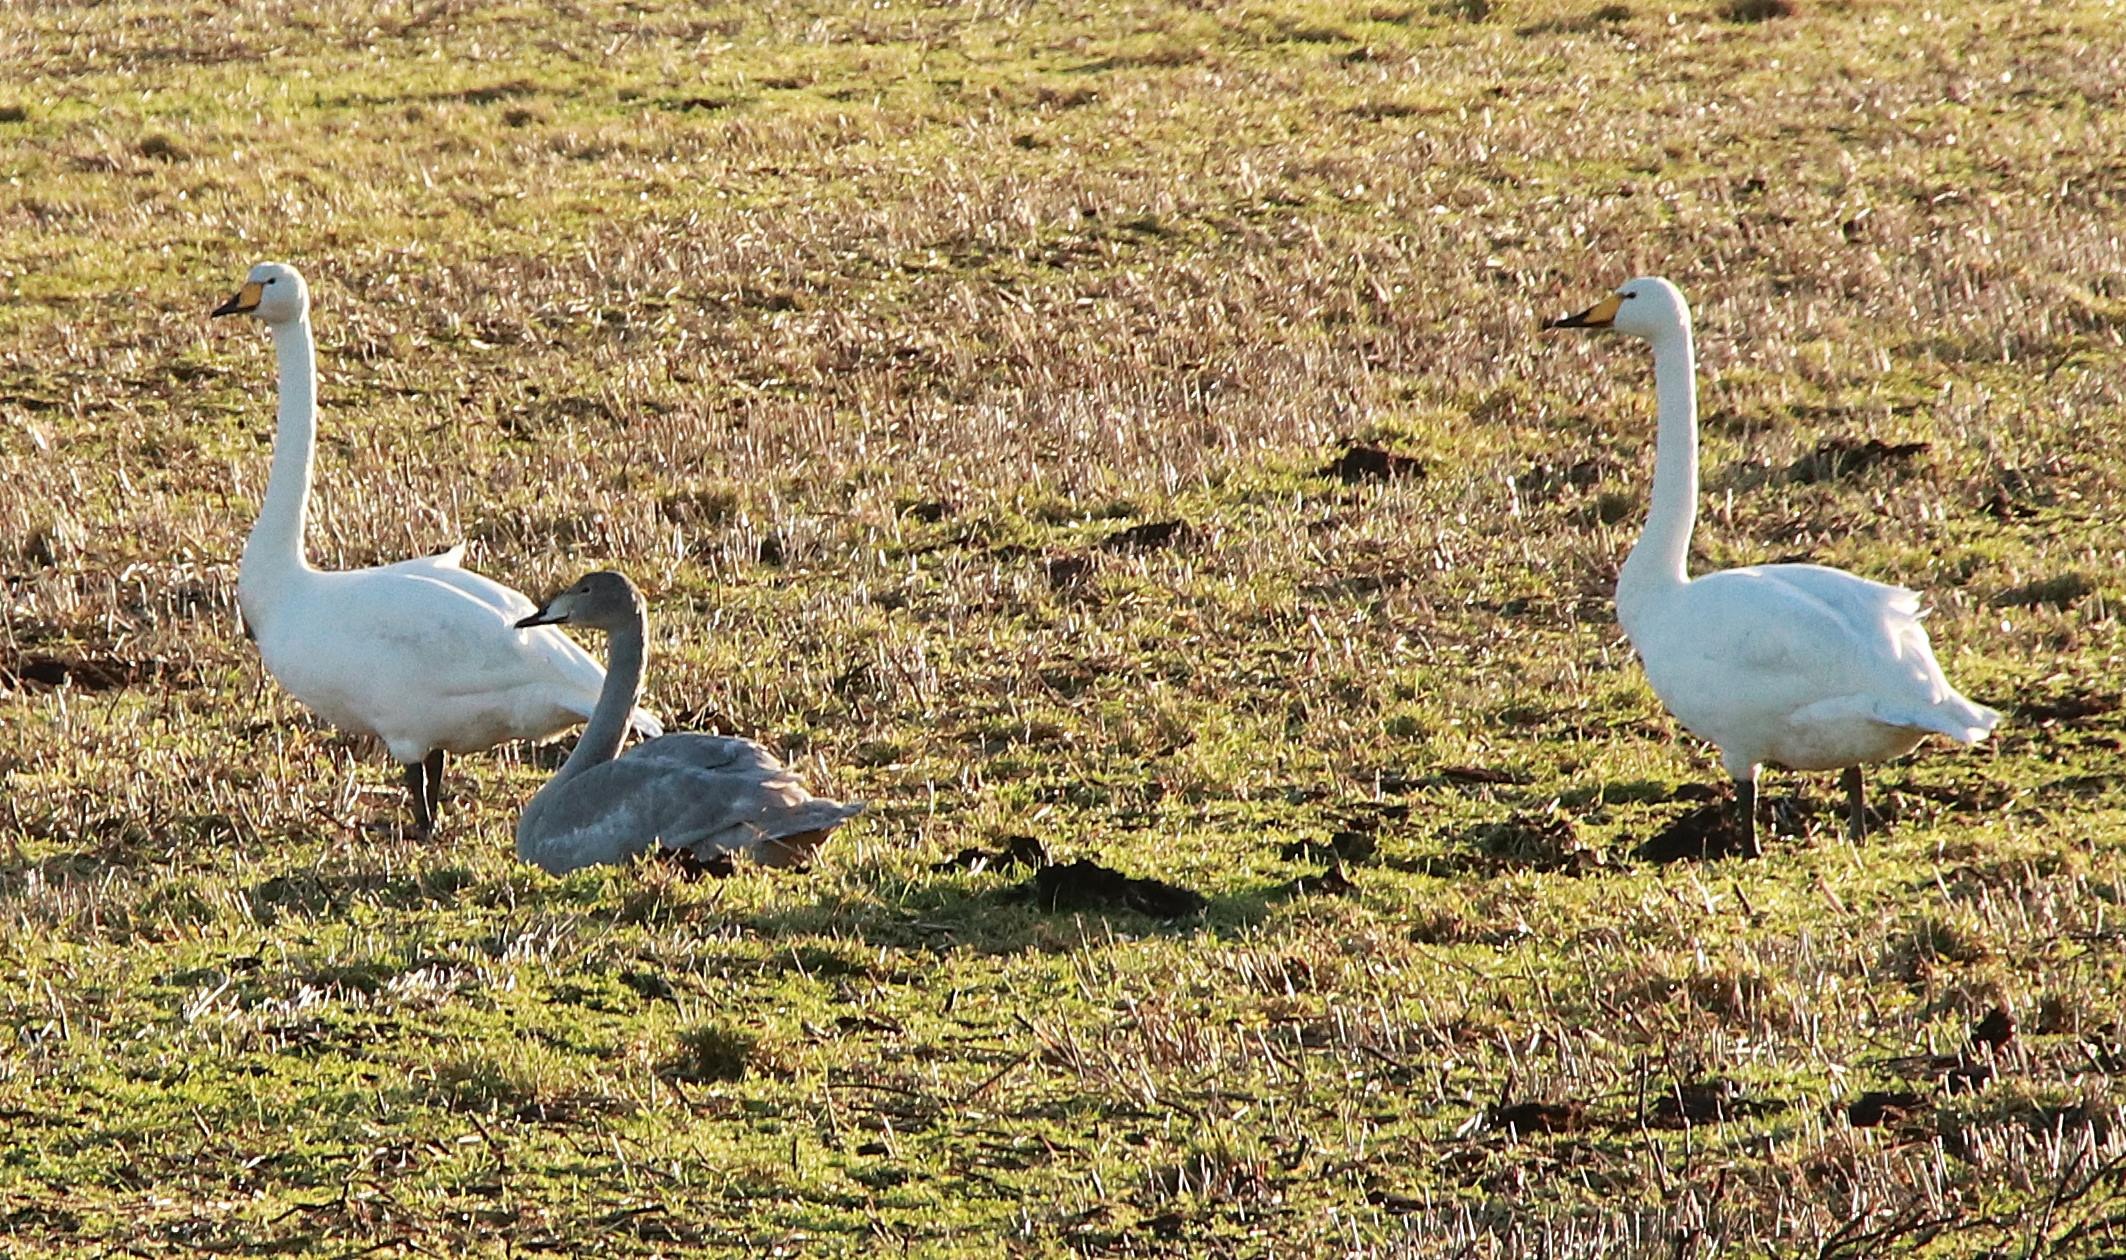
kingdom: Animalia
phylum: Chordata
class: Aves
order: Anseriformes
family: Anatidae
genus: Cygnus
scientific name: Cygnus cygnus
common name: Sangsvane
